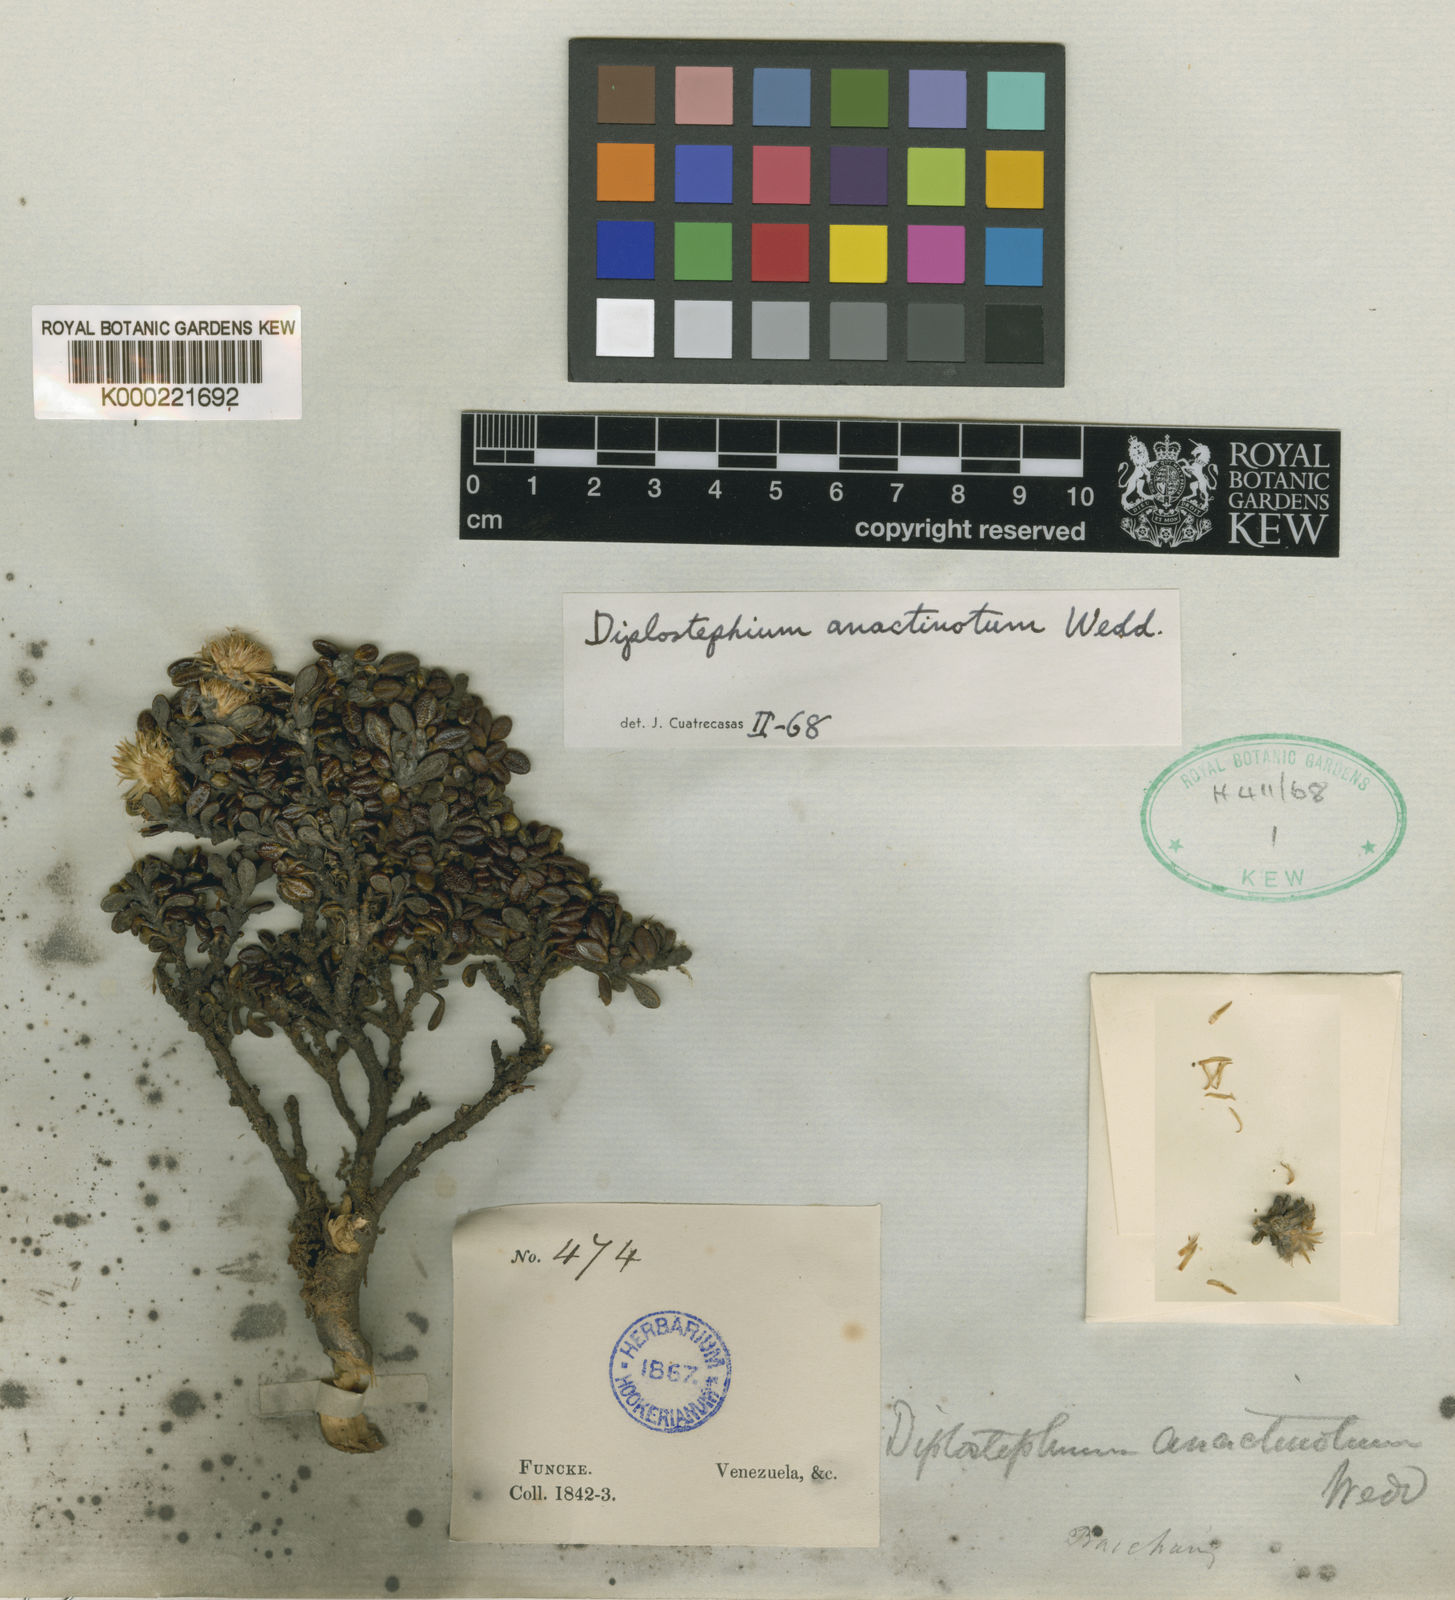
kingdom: Plantae
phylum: Tracheophyta
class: Magnoliopsida
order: Asterales
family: Asteraceae
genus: Linochilus
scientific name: Linochilus anactinotus
